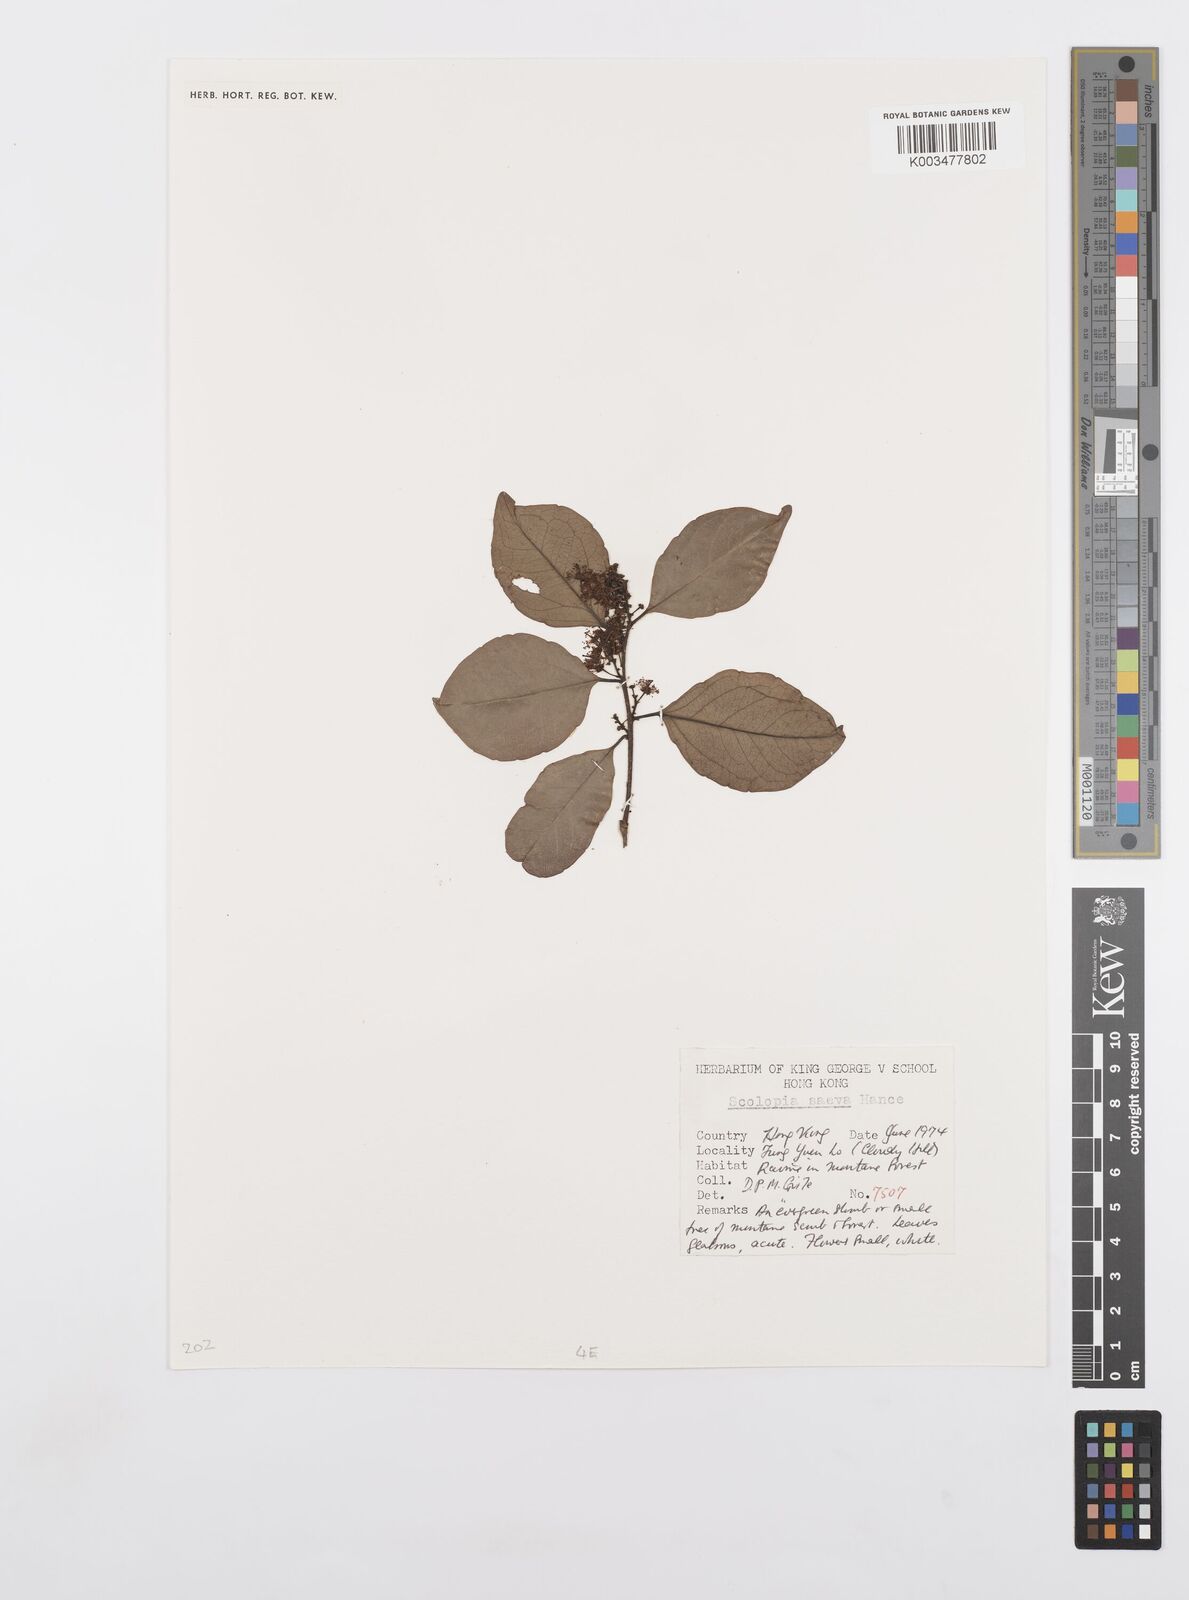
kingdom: Plantae
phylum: Tracheophyta
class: Magnoliopsida
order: Malpighiales
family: Salicaceae
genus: Scolopia
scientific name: Scolopia saeva
